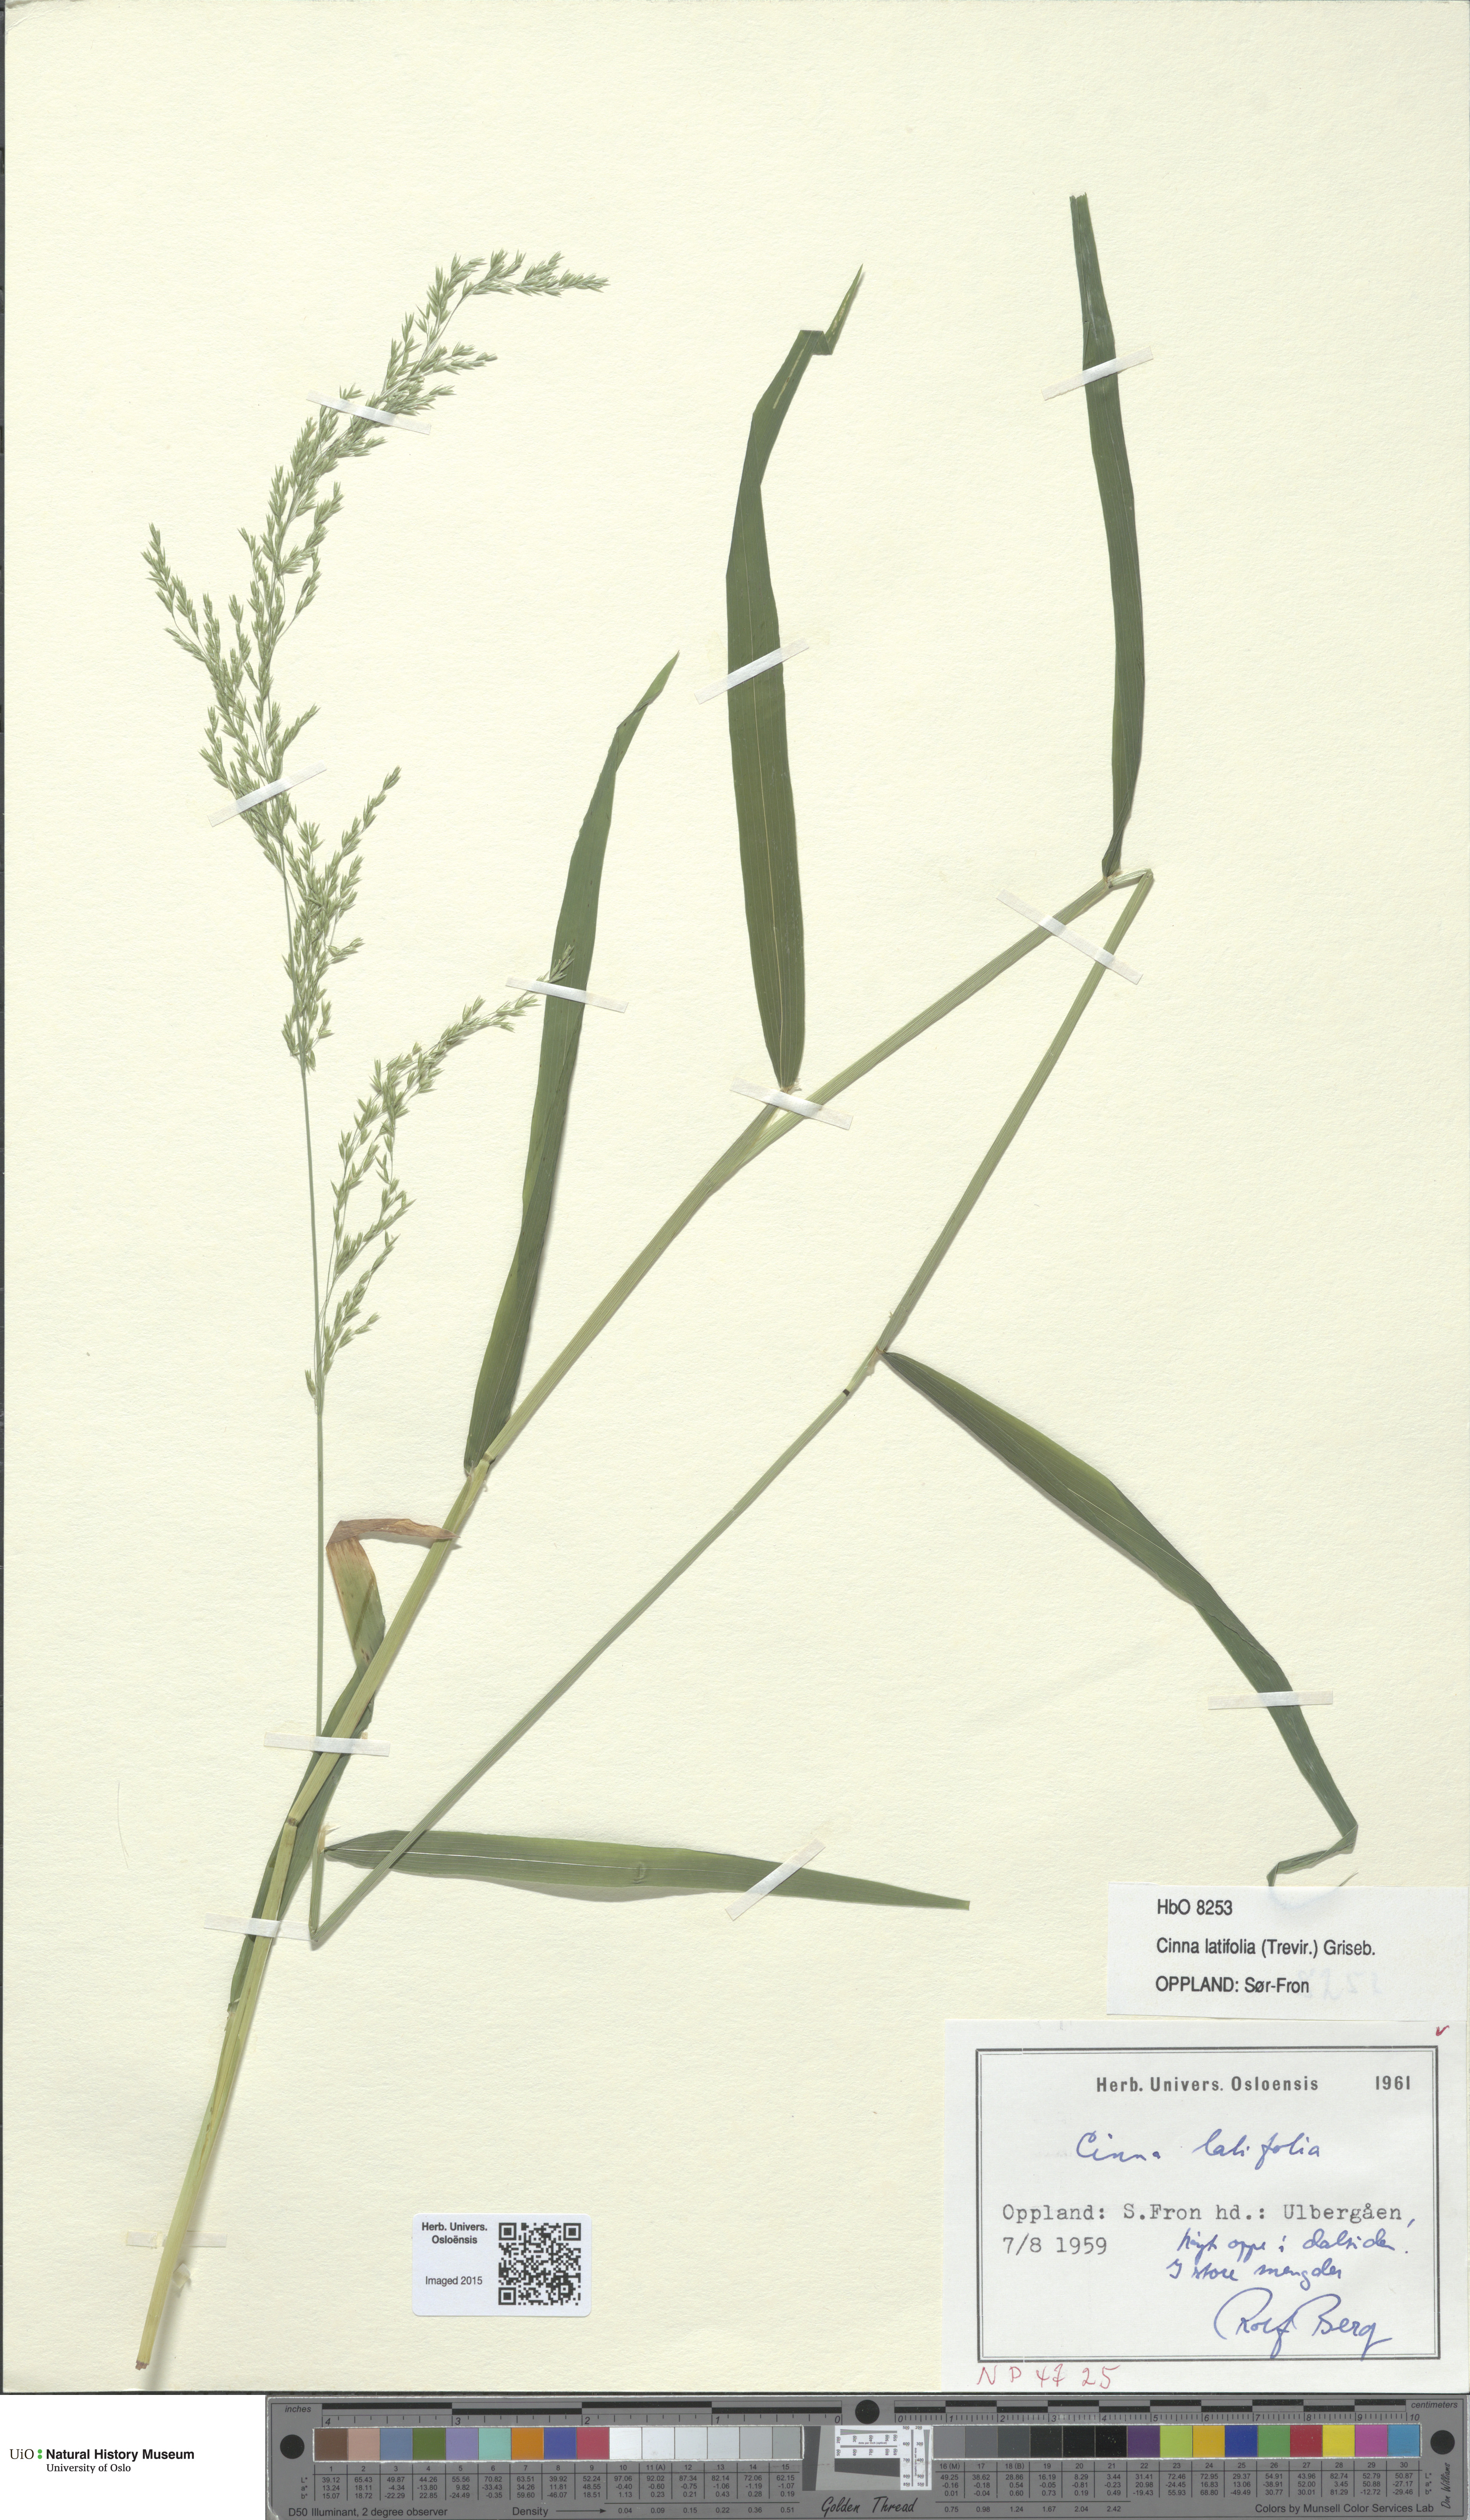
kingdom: Plantae
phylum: Tracheophyta
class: Liliopsida
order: Poales
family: Poaceae
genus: Cinna
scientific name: Cinna latifolia
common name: Drooping woodreed
